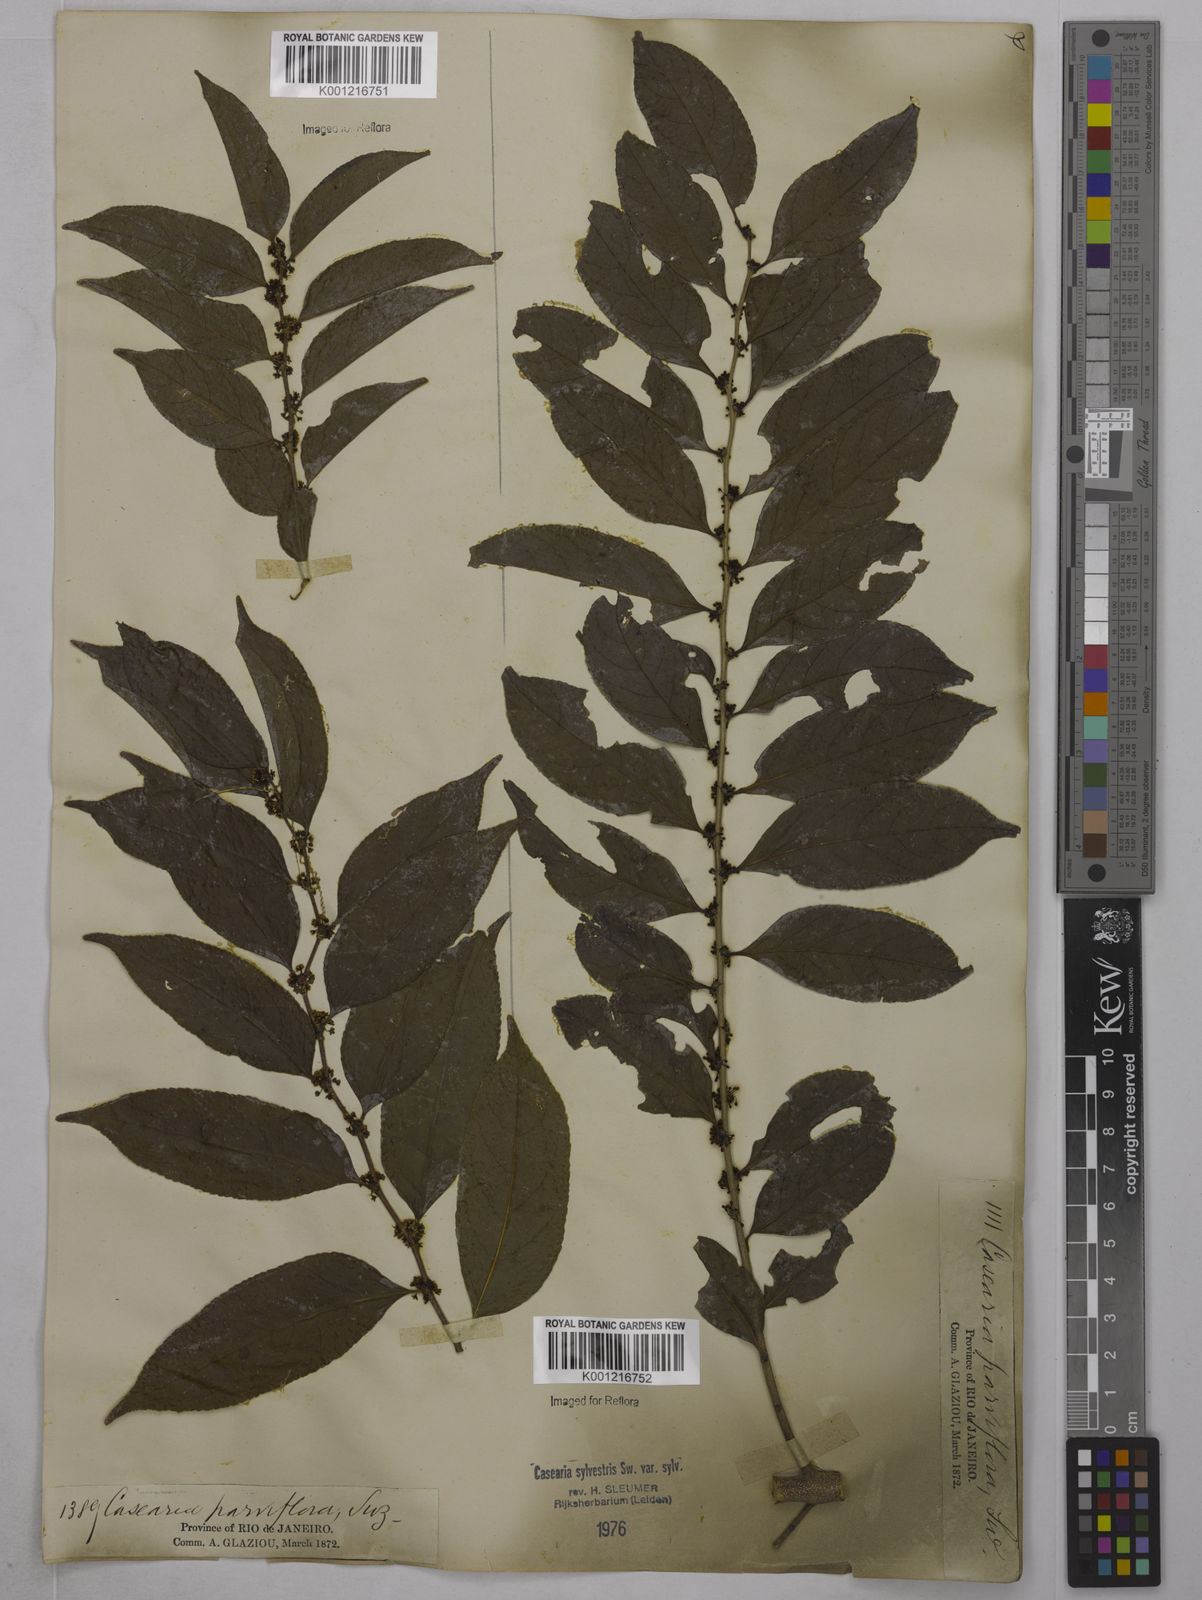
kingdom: Plantae
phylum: Tracheophyta
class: Magnoliopsida
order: Malpighiales
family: Salicaceae
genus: Casearia
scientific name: Casearia sylvestris
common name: Wild sage
